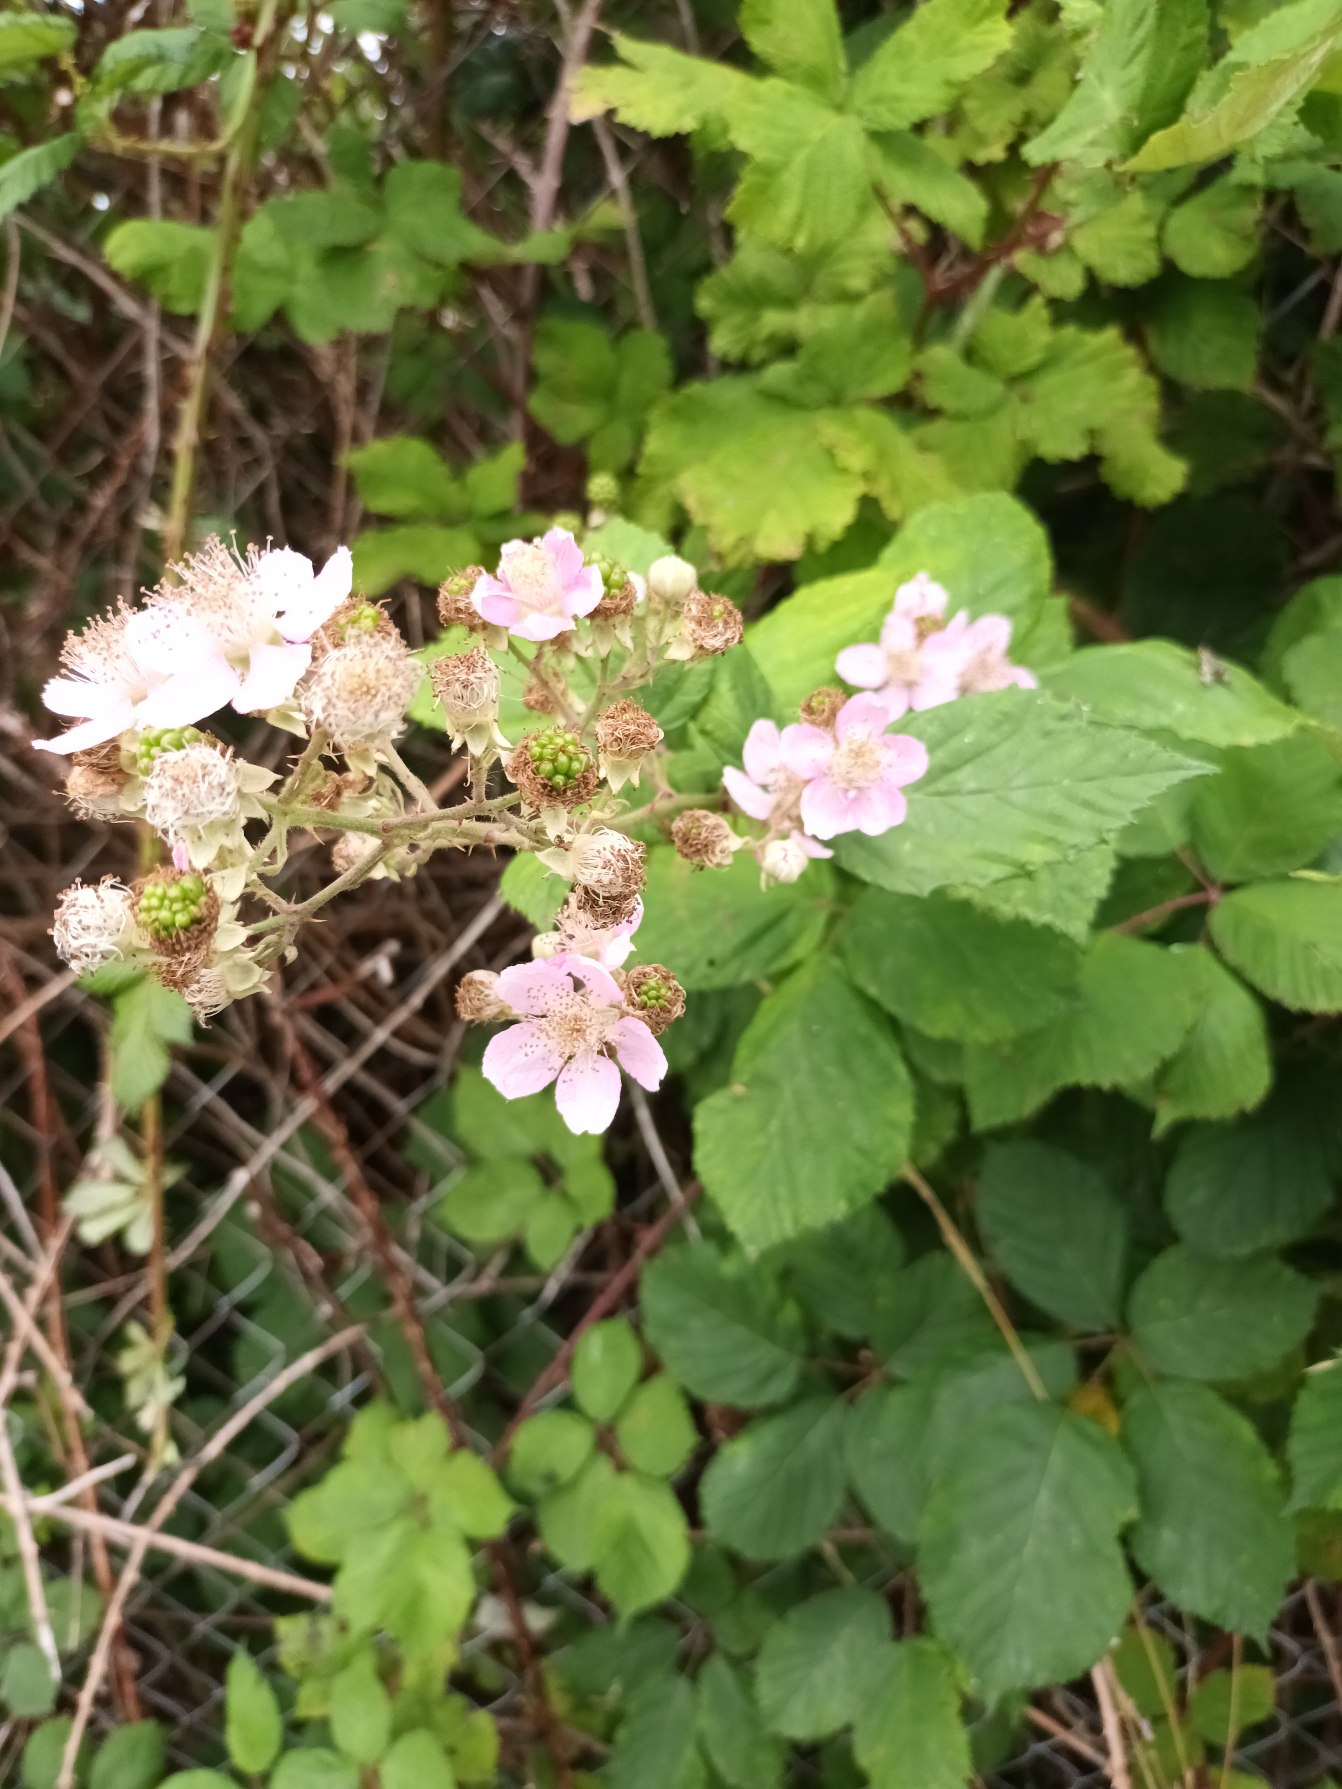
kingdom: Plantae
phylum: Tracheophyta
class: Magnoliopsida
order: Rosales
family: Rosaceae
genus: Rubus
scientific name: Rubus armeniacus
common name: Armensk brombær
